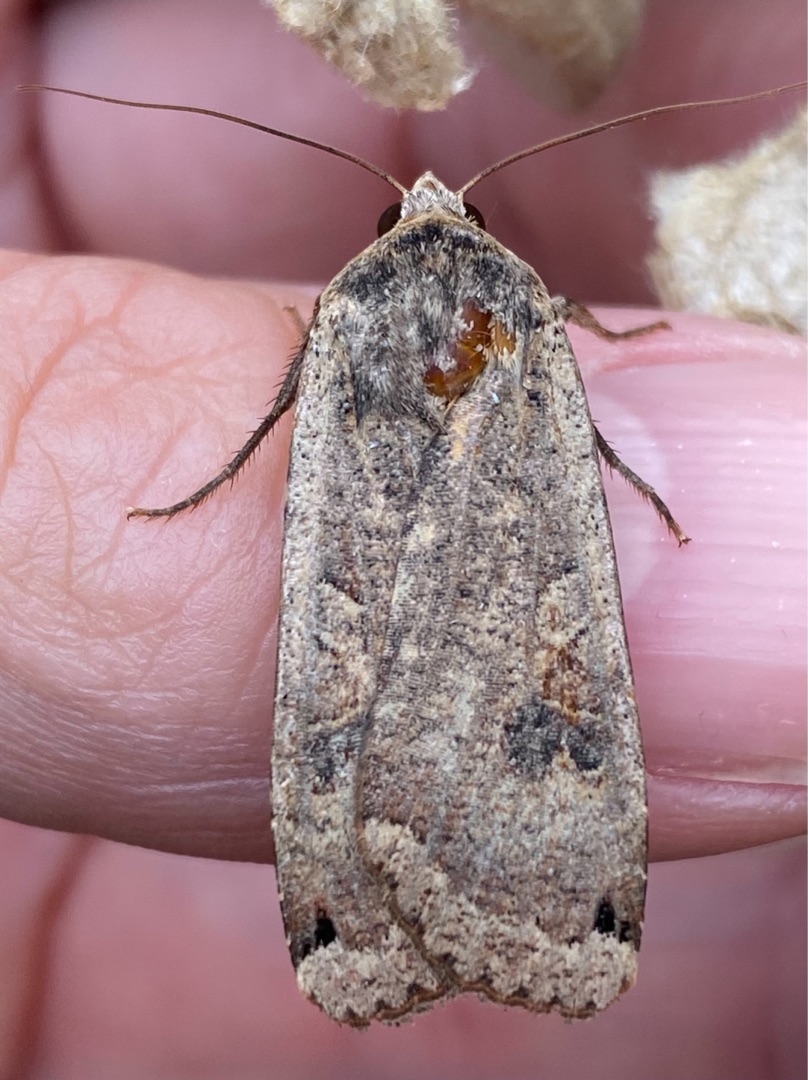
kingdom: Animalia
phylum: Arthropoda
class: Insecta
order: Lepidoptera
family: Noctuidae
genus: Noctua
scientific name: Noctua pronuba
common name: Stor smutugle
